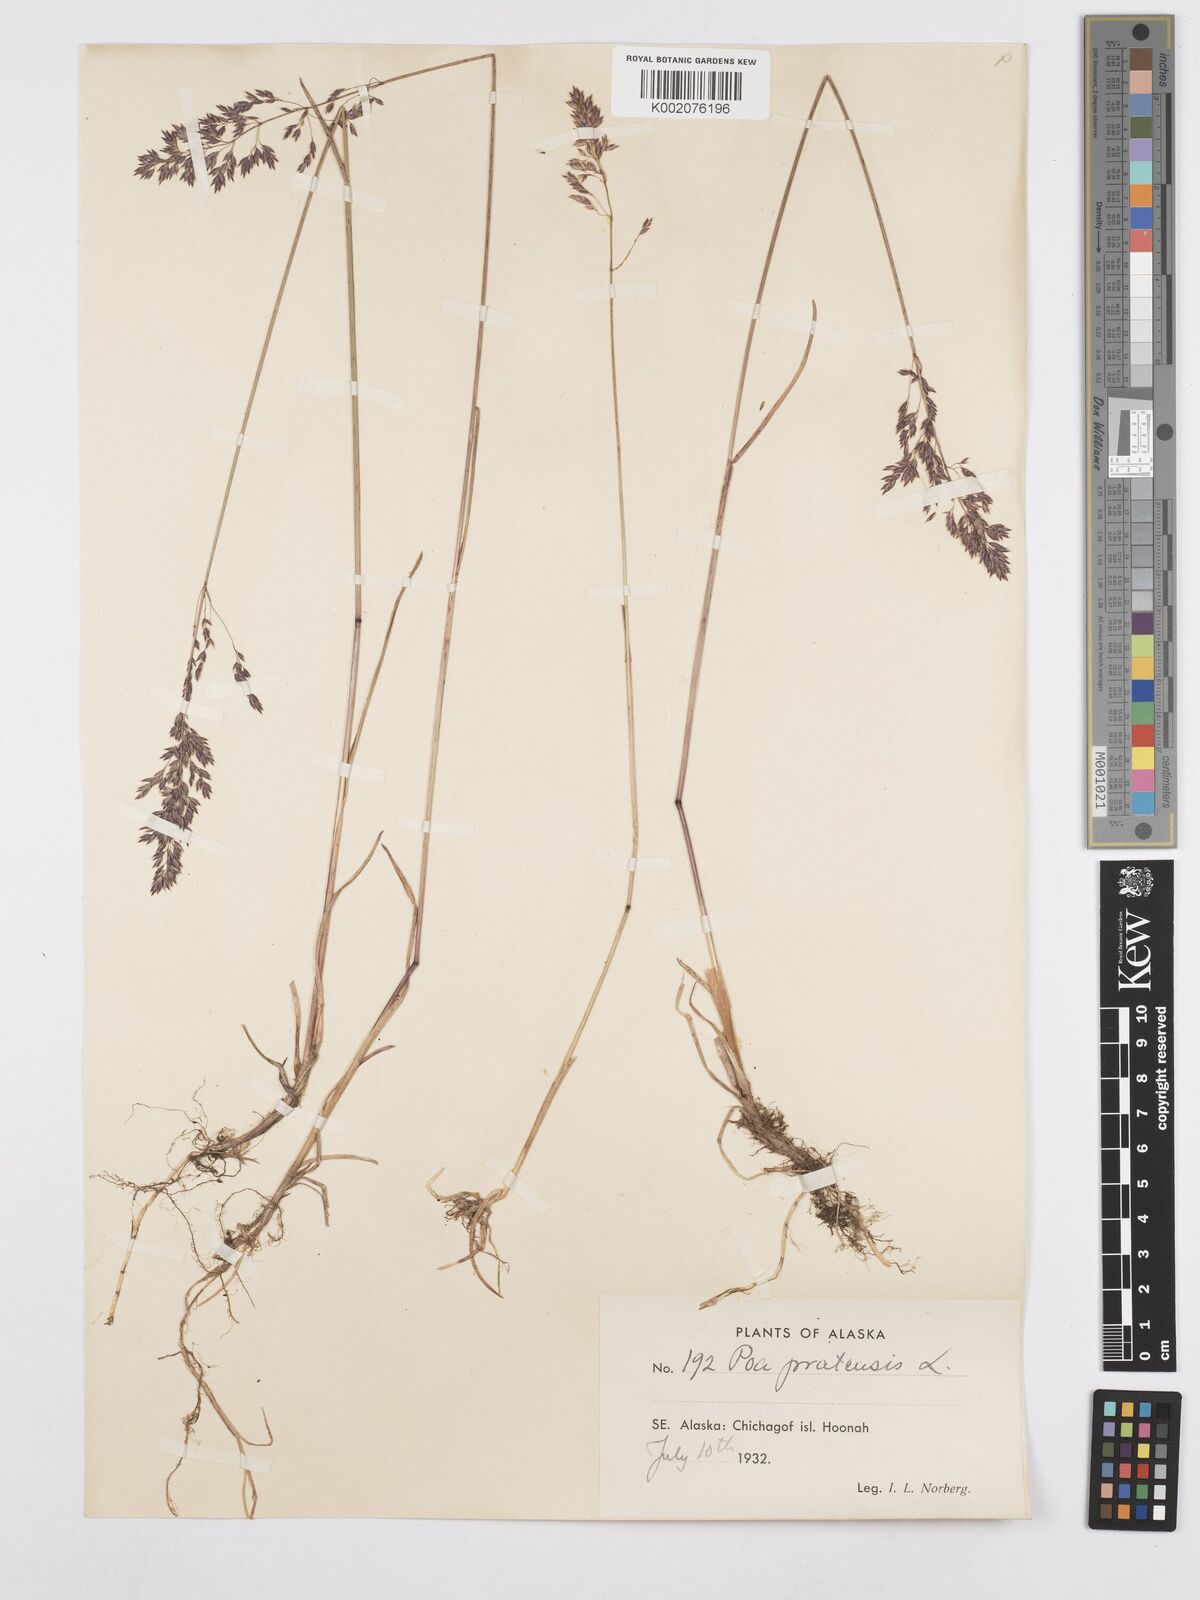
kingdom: Plantae
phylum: Tracheophyta
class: Liliopsida
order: Poales
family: Poaceae
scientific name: Poaceae
